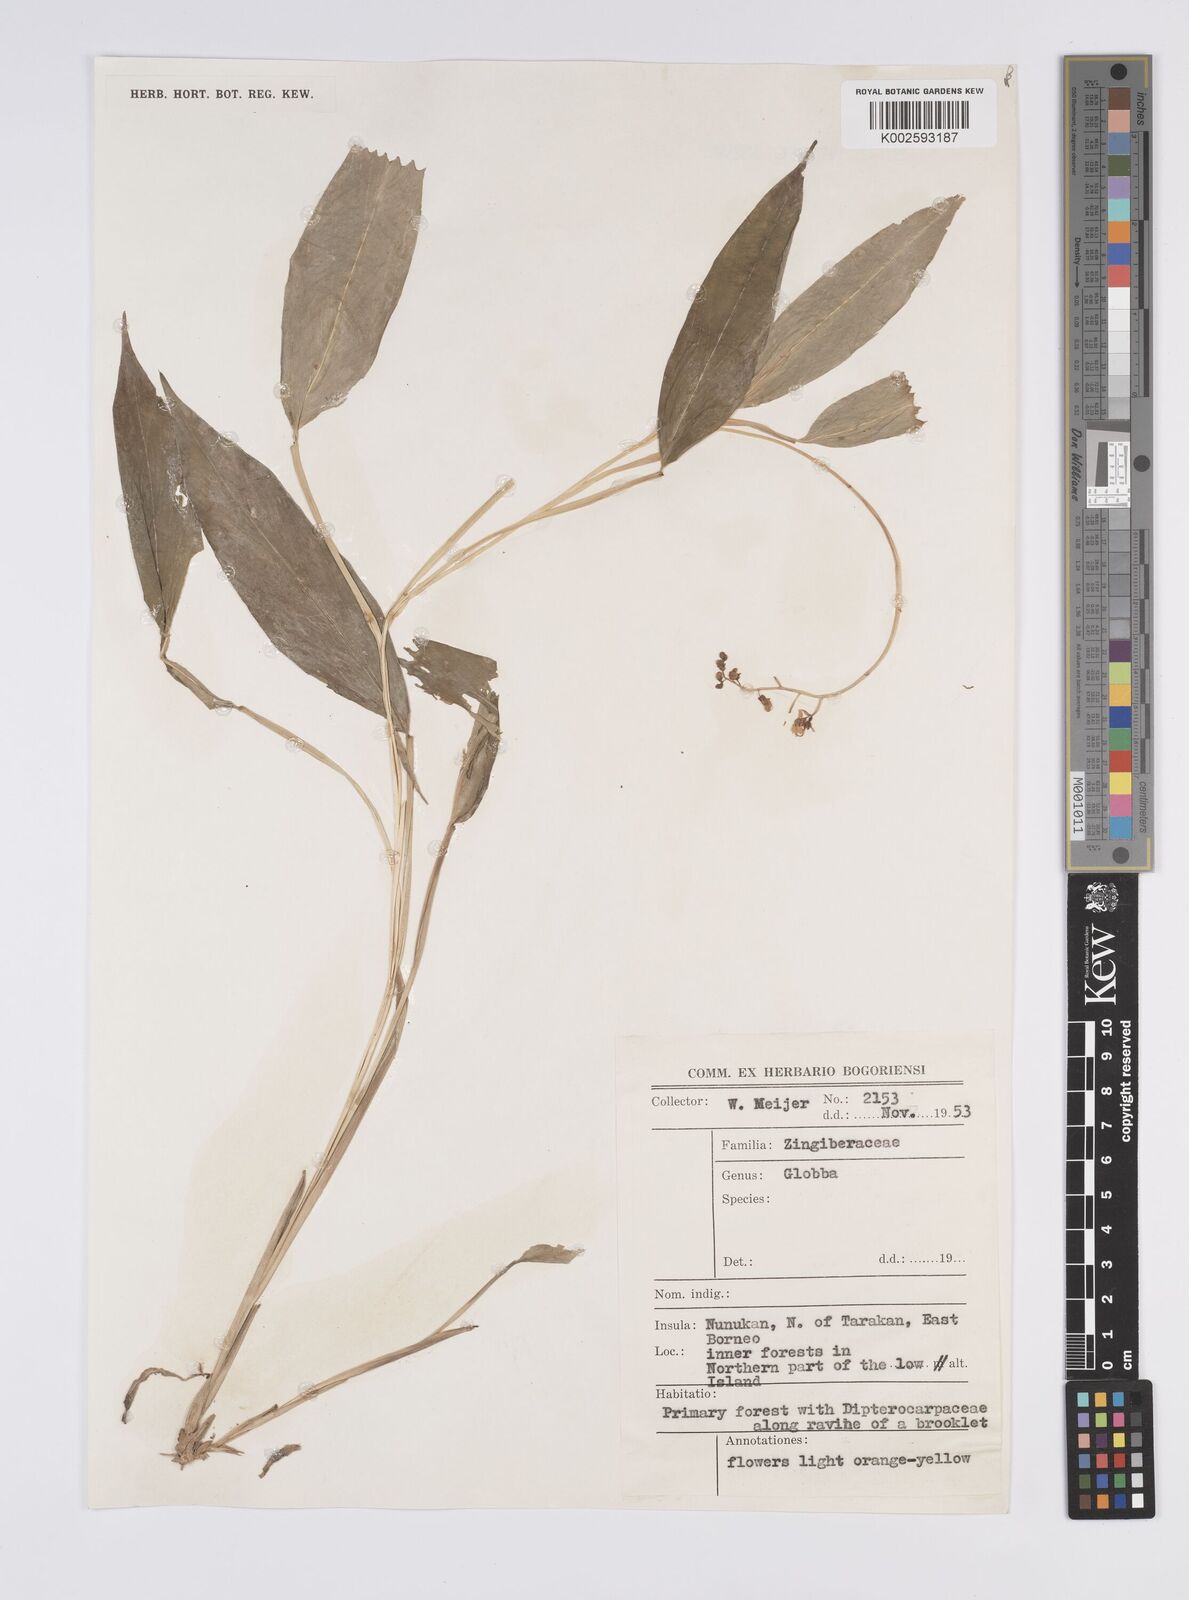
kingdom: Plantae
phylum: Tracheophyta
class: Liliopsida
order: Zingiberales
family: Zingiberaceae
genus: Globba
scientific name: Globba
